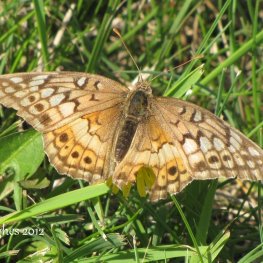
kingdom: Animalia
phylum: Arthropoda
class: Insecta
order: Lepidoptera
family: Nymphalidae
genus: Euptoieta
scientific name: Euptoieta claudia
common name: Variegated Fritillary
